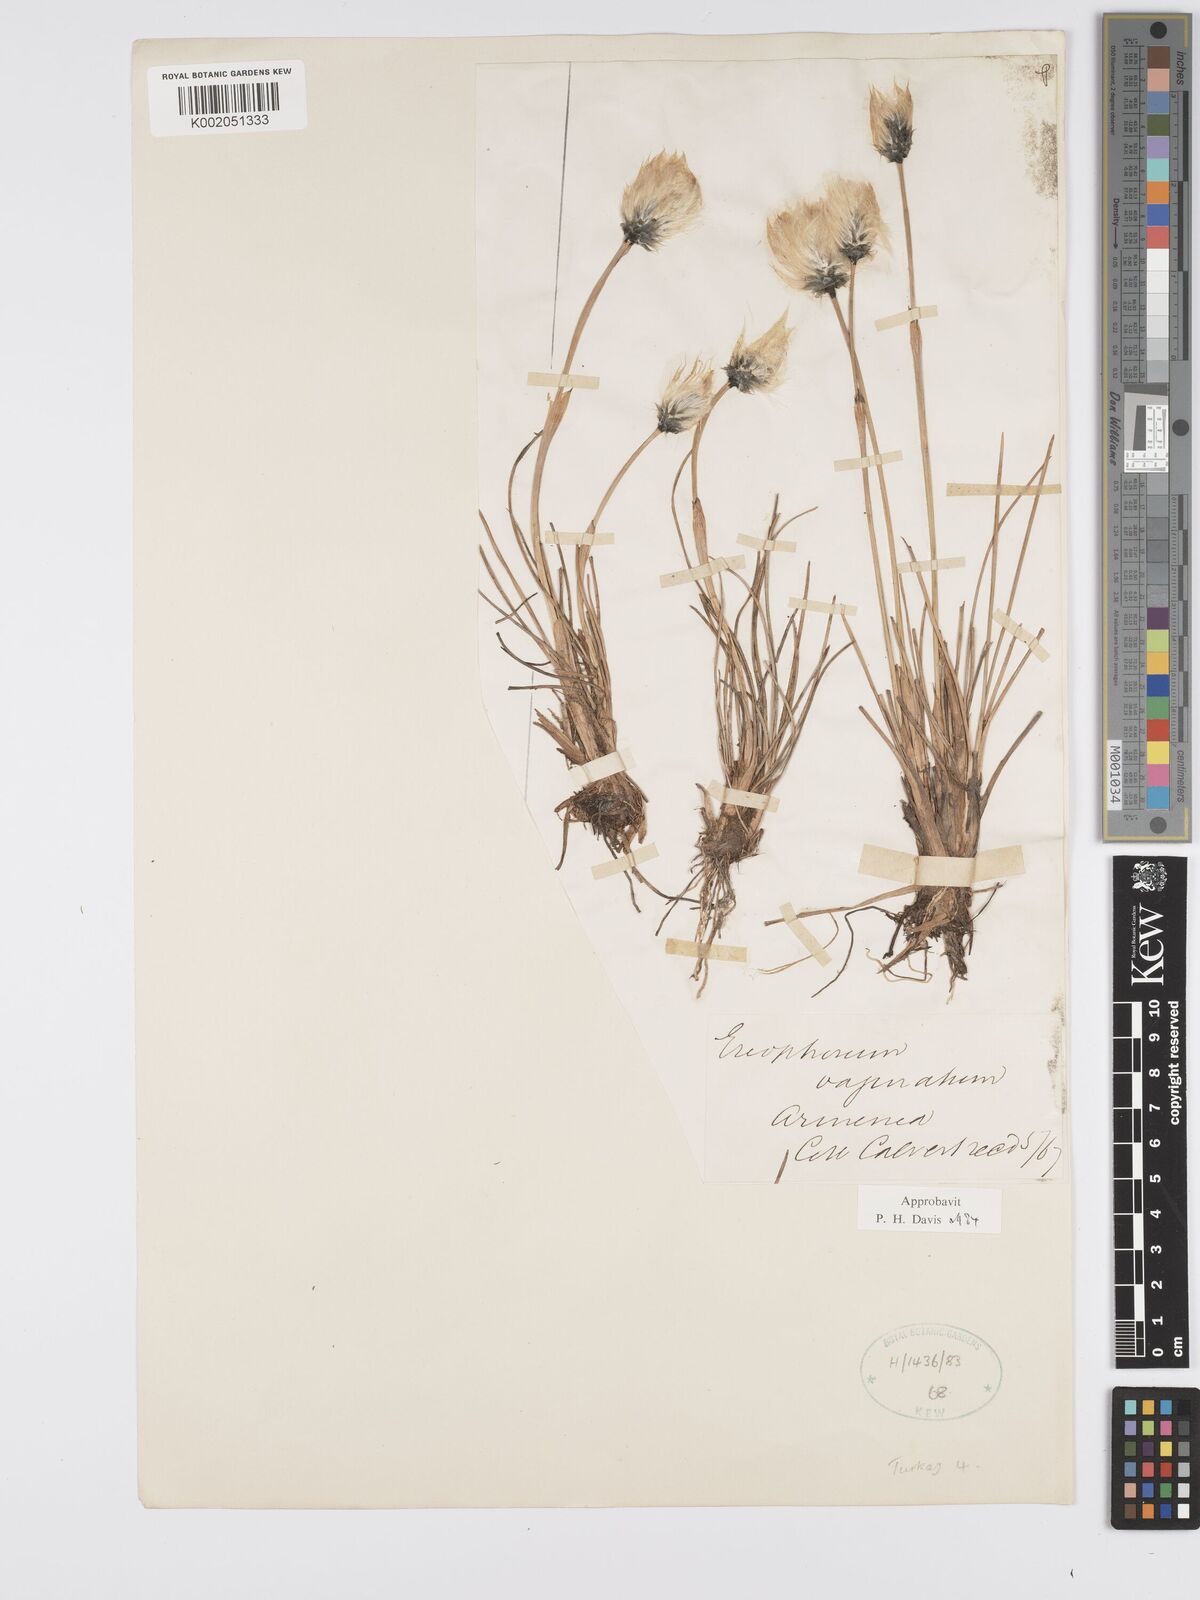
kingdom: Plantae
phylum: Tracheophyta
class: Liliopsida
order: Poales
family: Cyperaceae
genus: Eriophorum
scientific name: Eriophorum vaginatum
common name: Hare's-tail cottongrass
